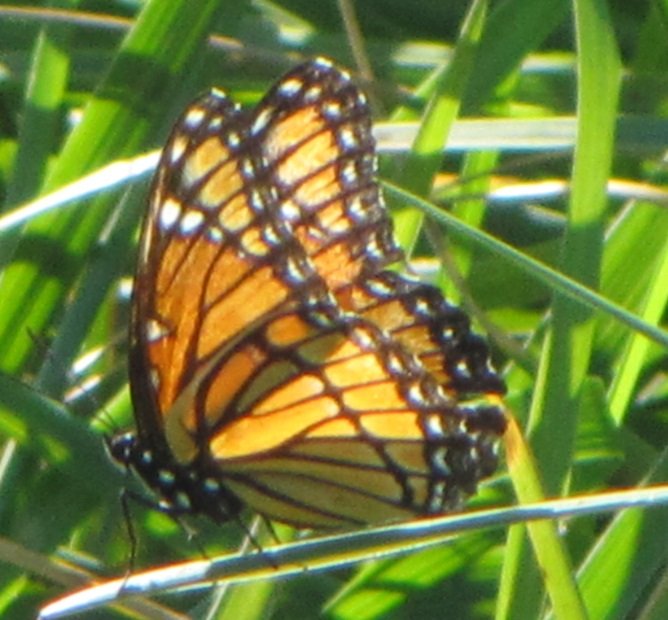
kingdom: Animalia
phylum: Arthropoda
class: Insecta
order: Lepidoptera
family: Nymphalidae
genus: Limenitis
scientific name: Limenitis archippus
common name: Viceroy
